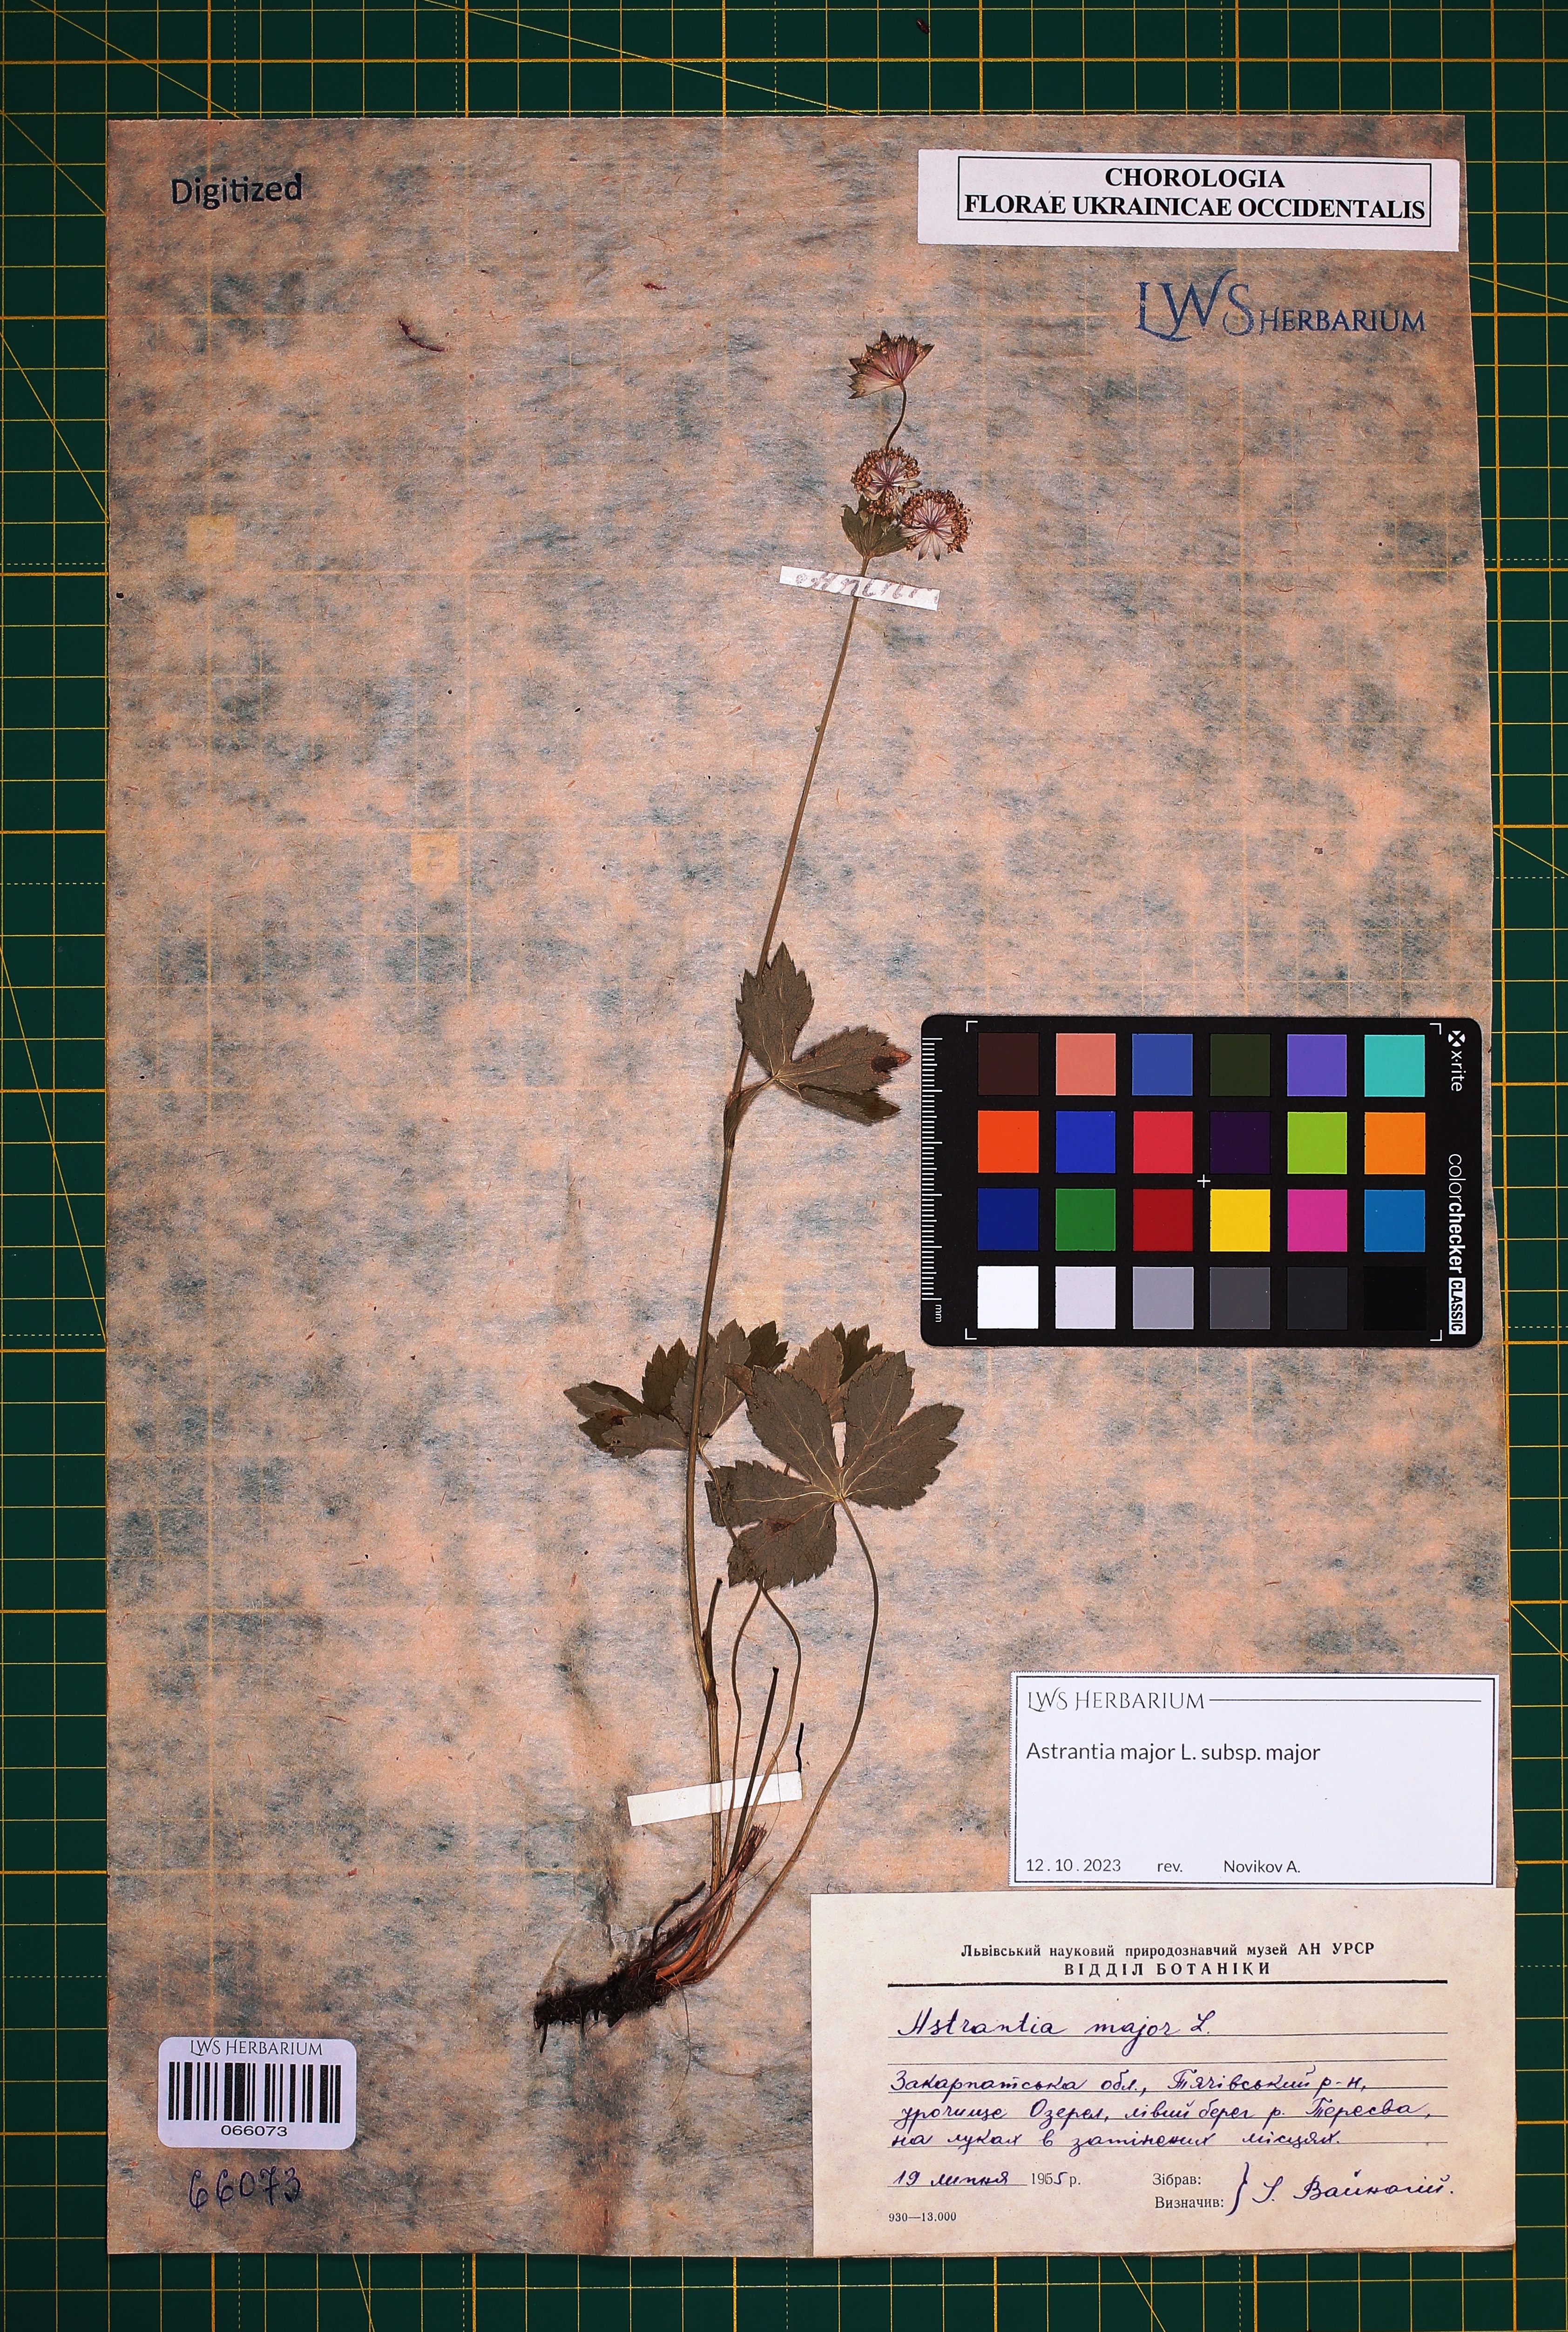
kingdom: Plantae
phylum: Tracheophyta
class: Magnoliopsida
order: Apiales
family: Apiaceae
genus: Astrantia
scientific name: Astrantia major
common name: Greater masterwort
